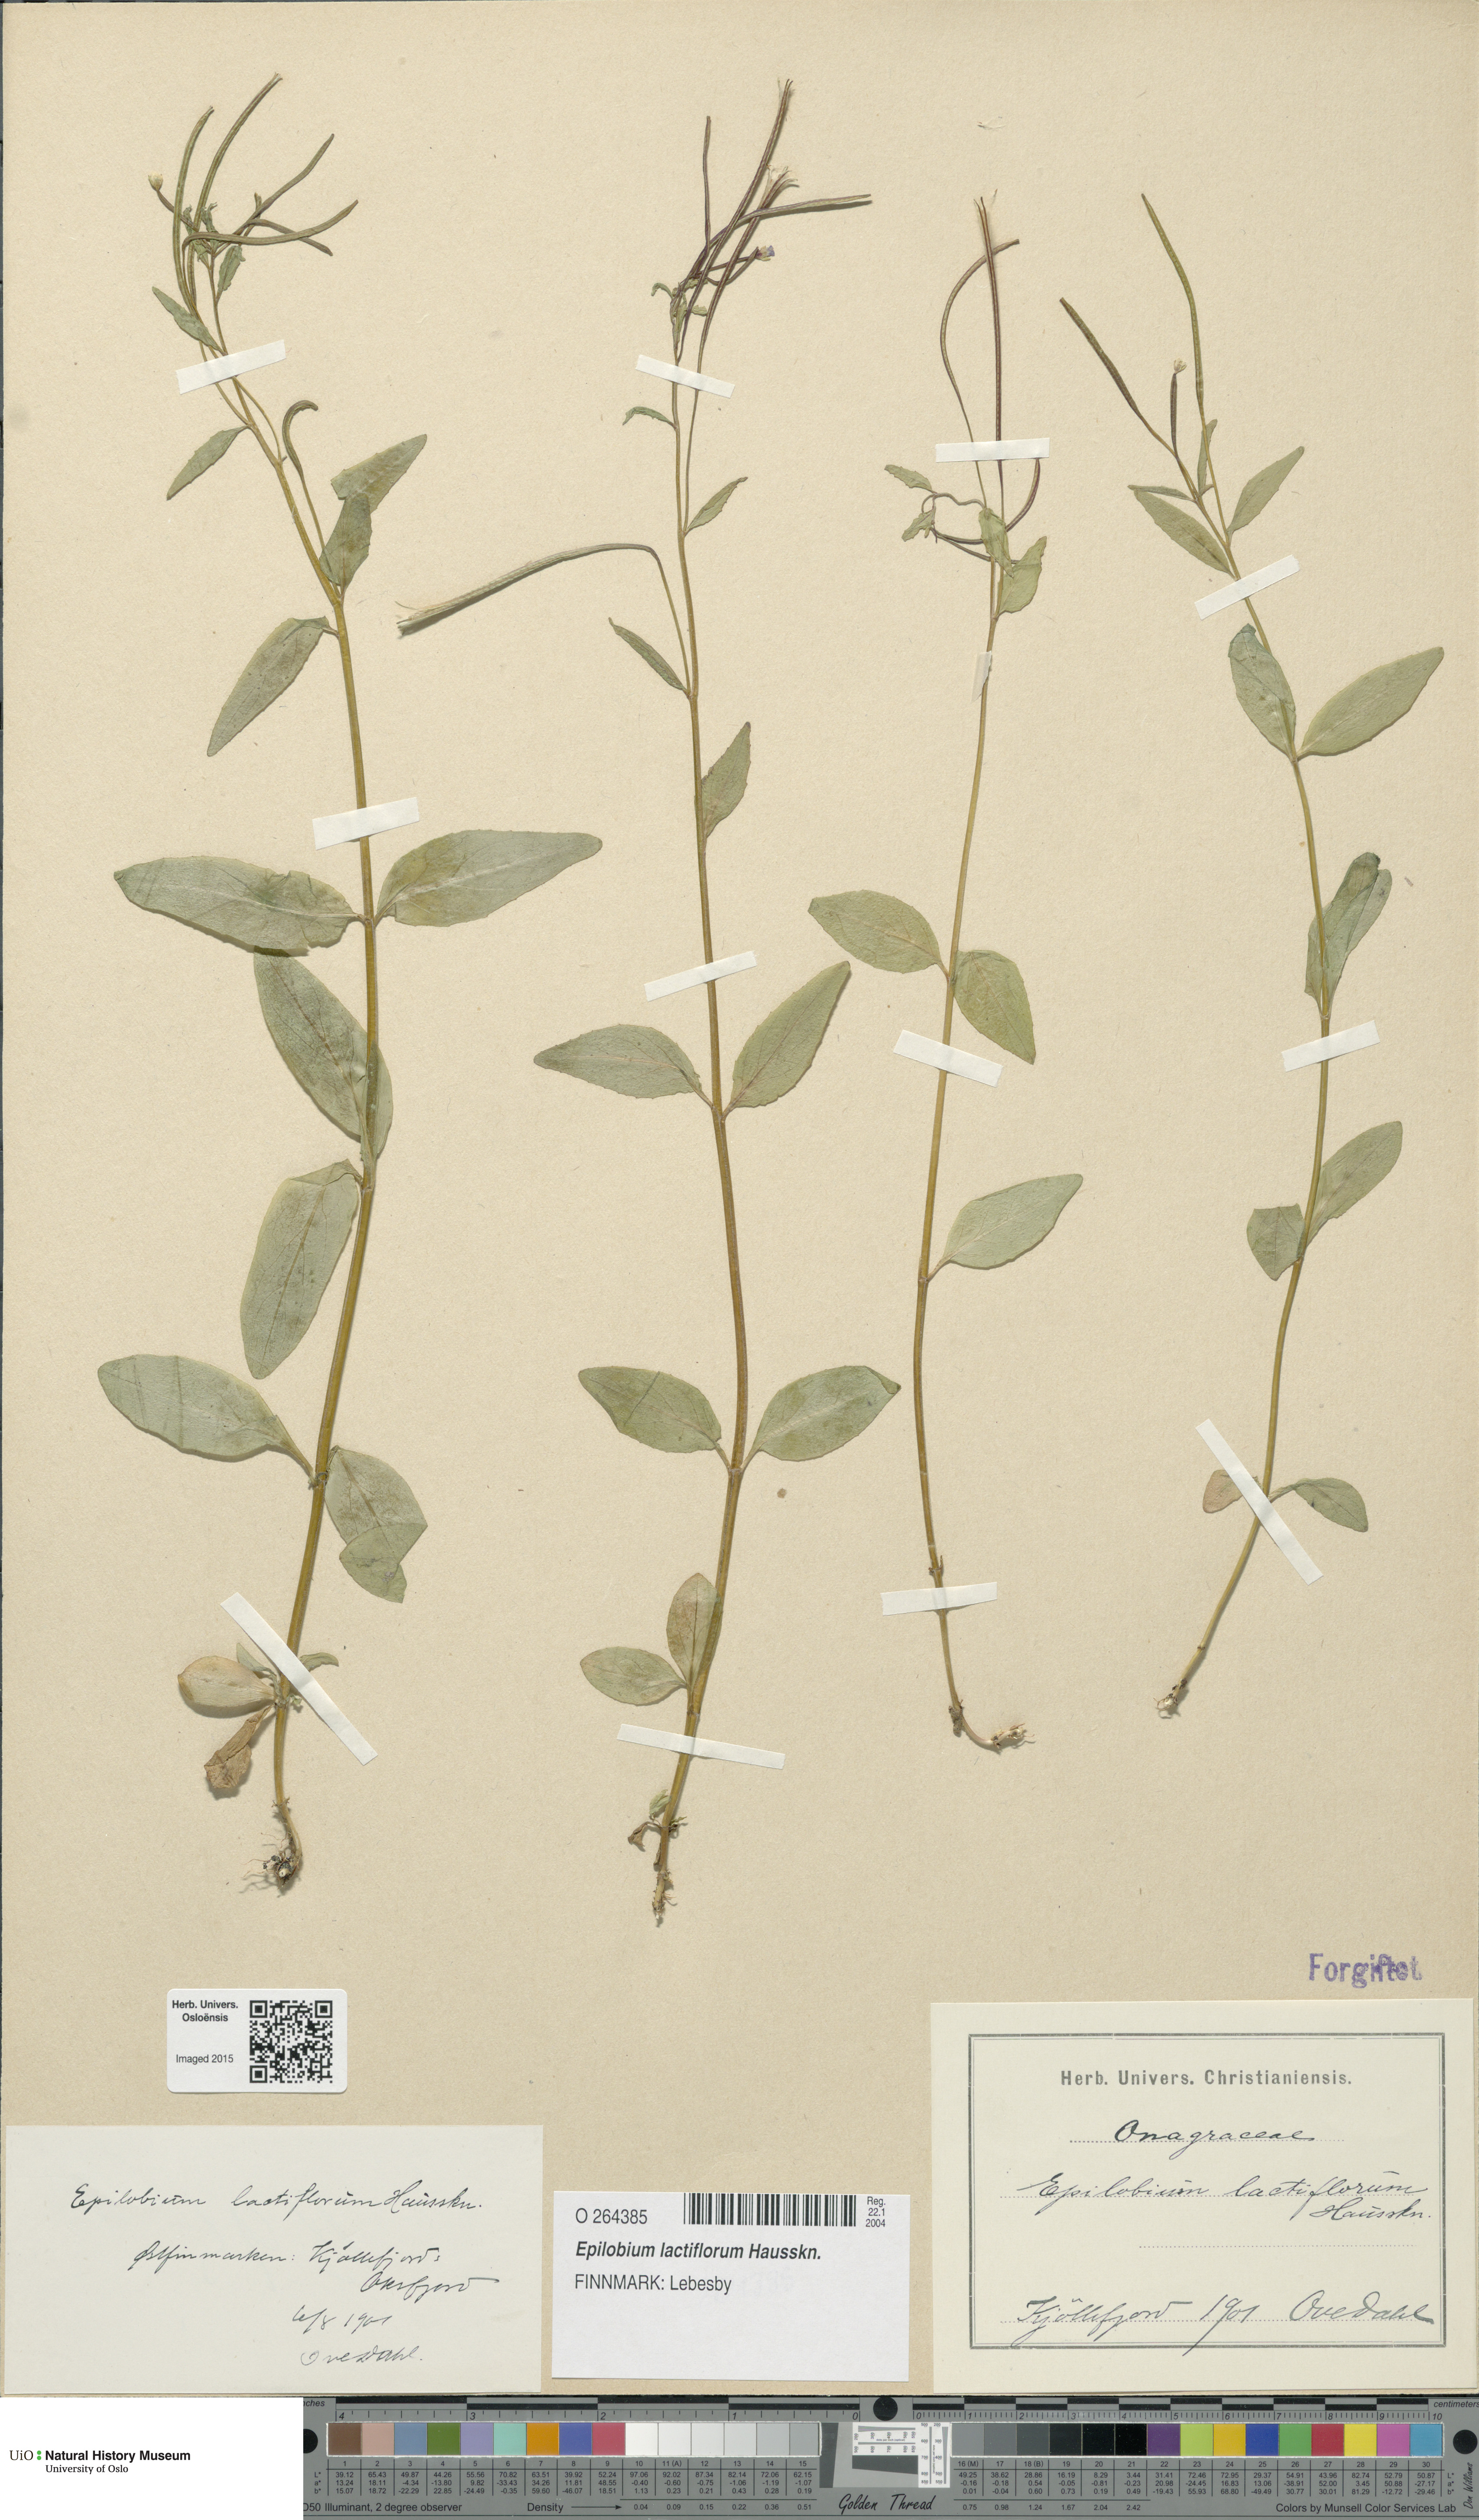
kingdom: Plantae
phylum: Tracheophyta
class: Magnoliopsida
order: Myrtales
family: Onagraceae
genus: Epilobium
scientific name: Epilobium lactiflorum
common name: Milkflower willowherb
